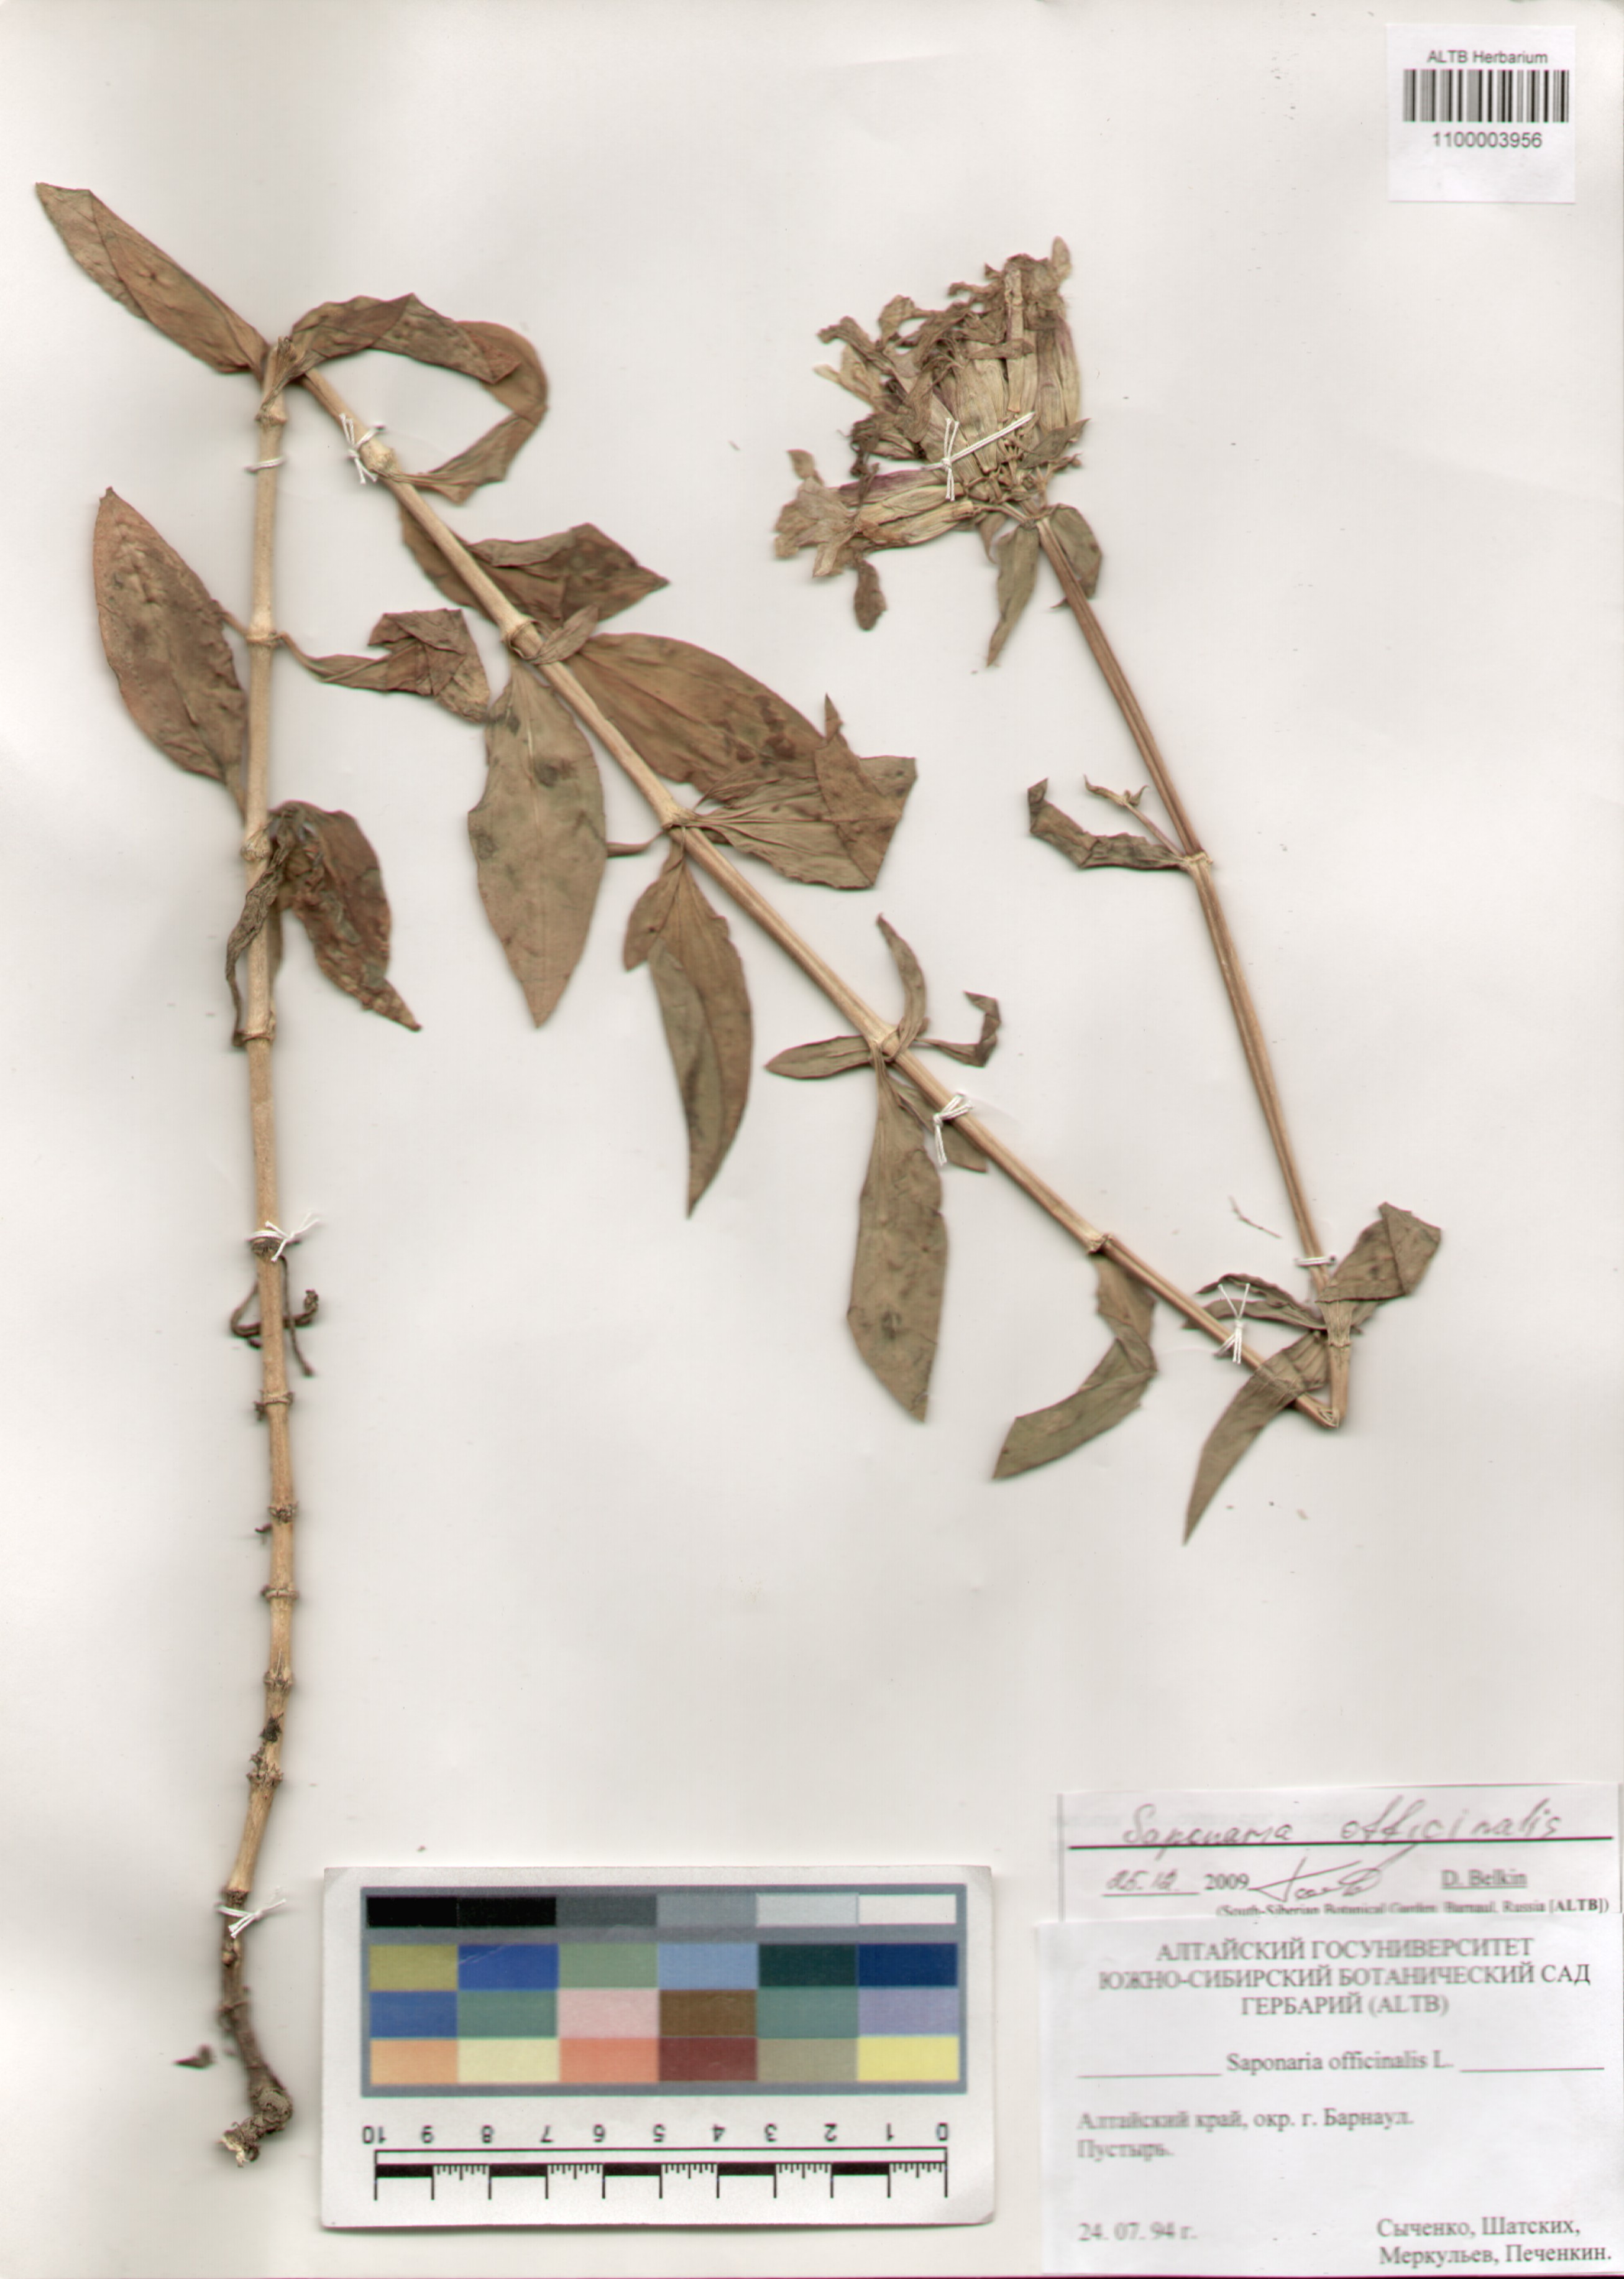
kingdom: Plantae
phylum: Tracheophyta
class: Magnoliopsida
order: Caryophyllales
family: Caryophyllaceae
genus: Saponaria
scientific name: Saponaria officinalis
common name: Soapwort
